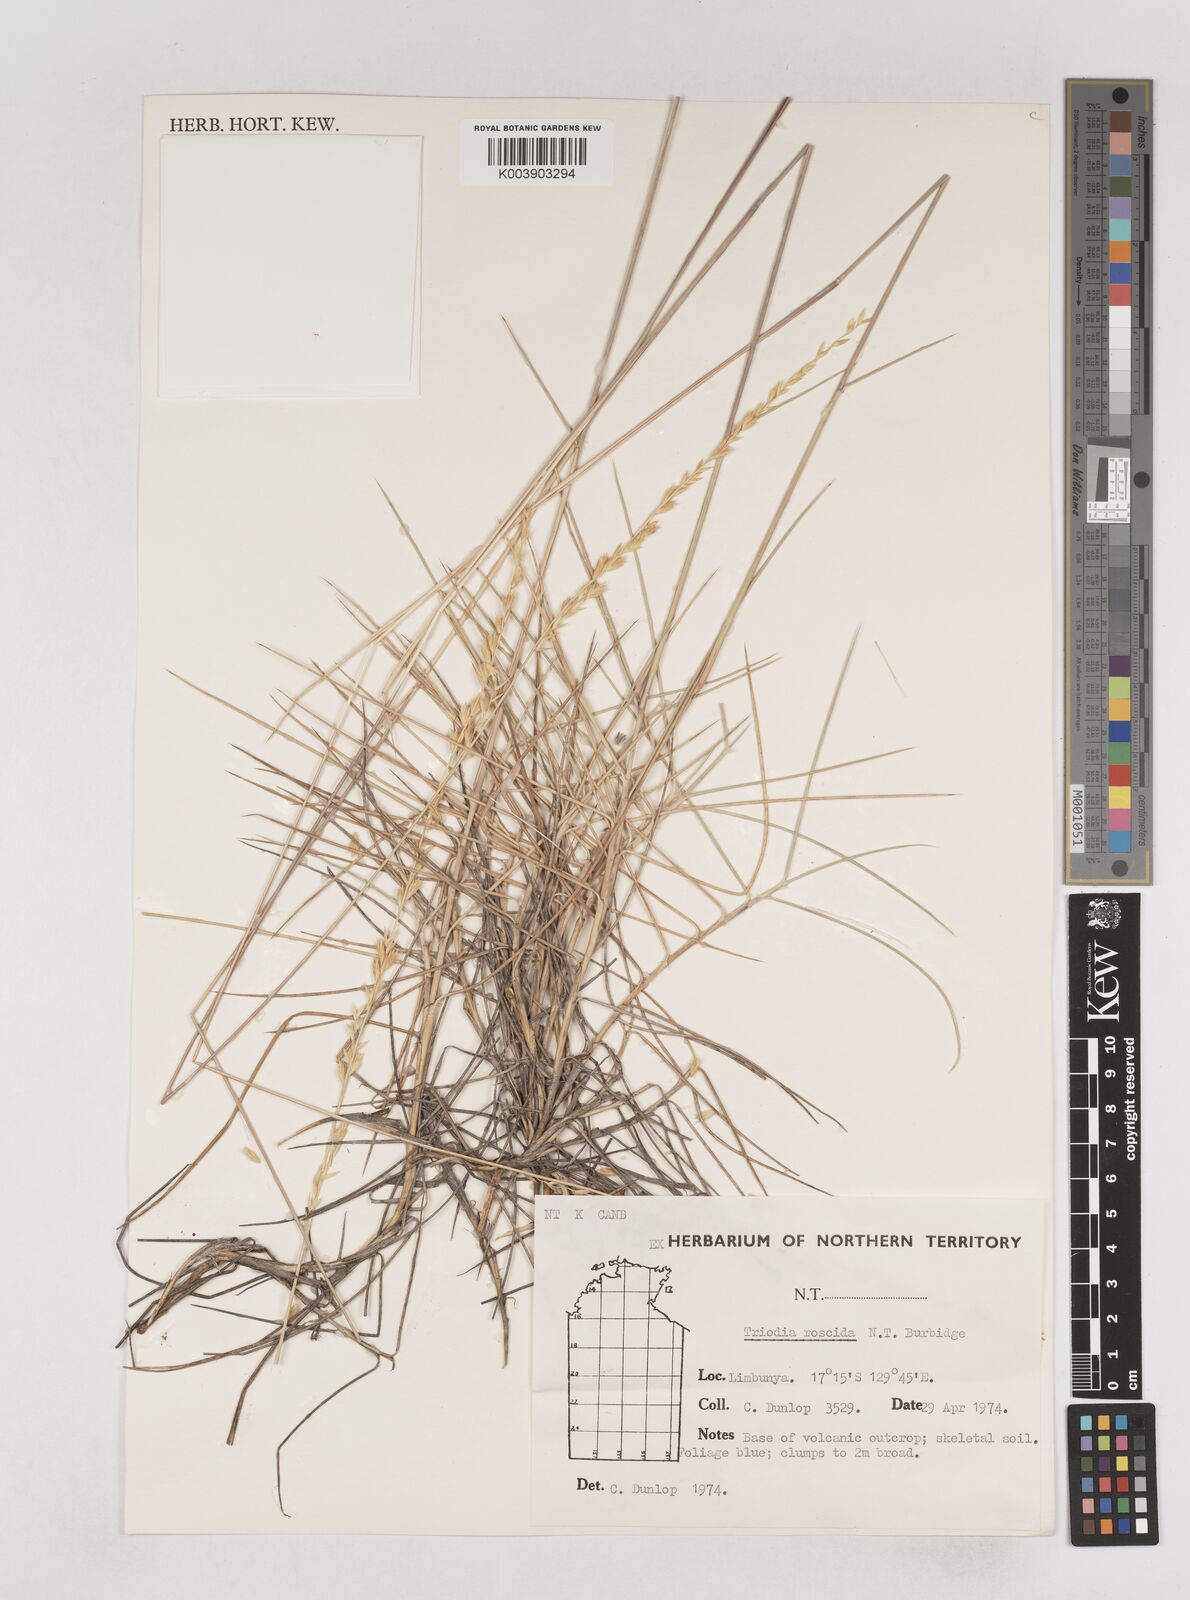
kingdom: Plantae
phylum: Tracheophyta
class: Liliopsida
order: Poales
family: Poaceae
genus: Triodia
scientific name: Triodia roscida
